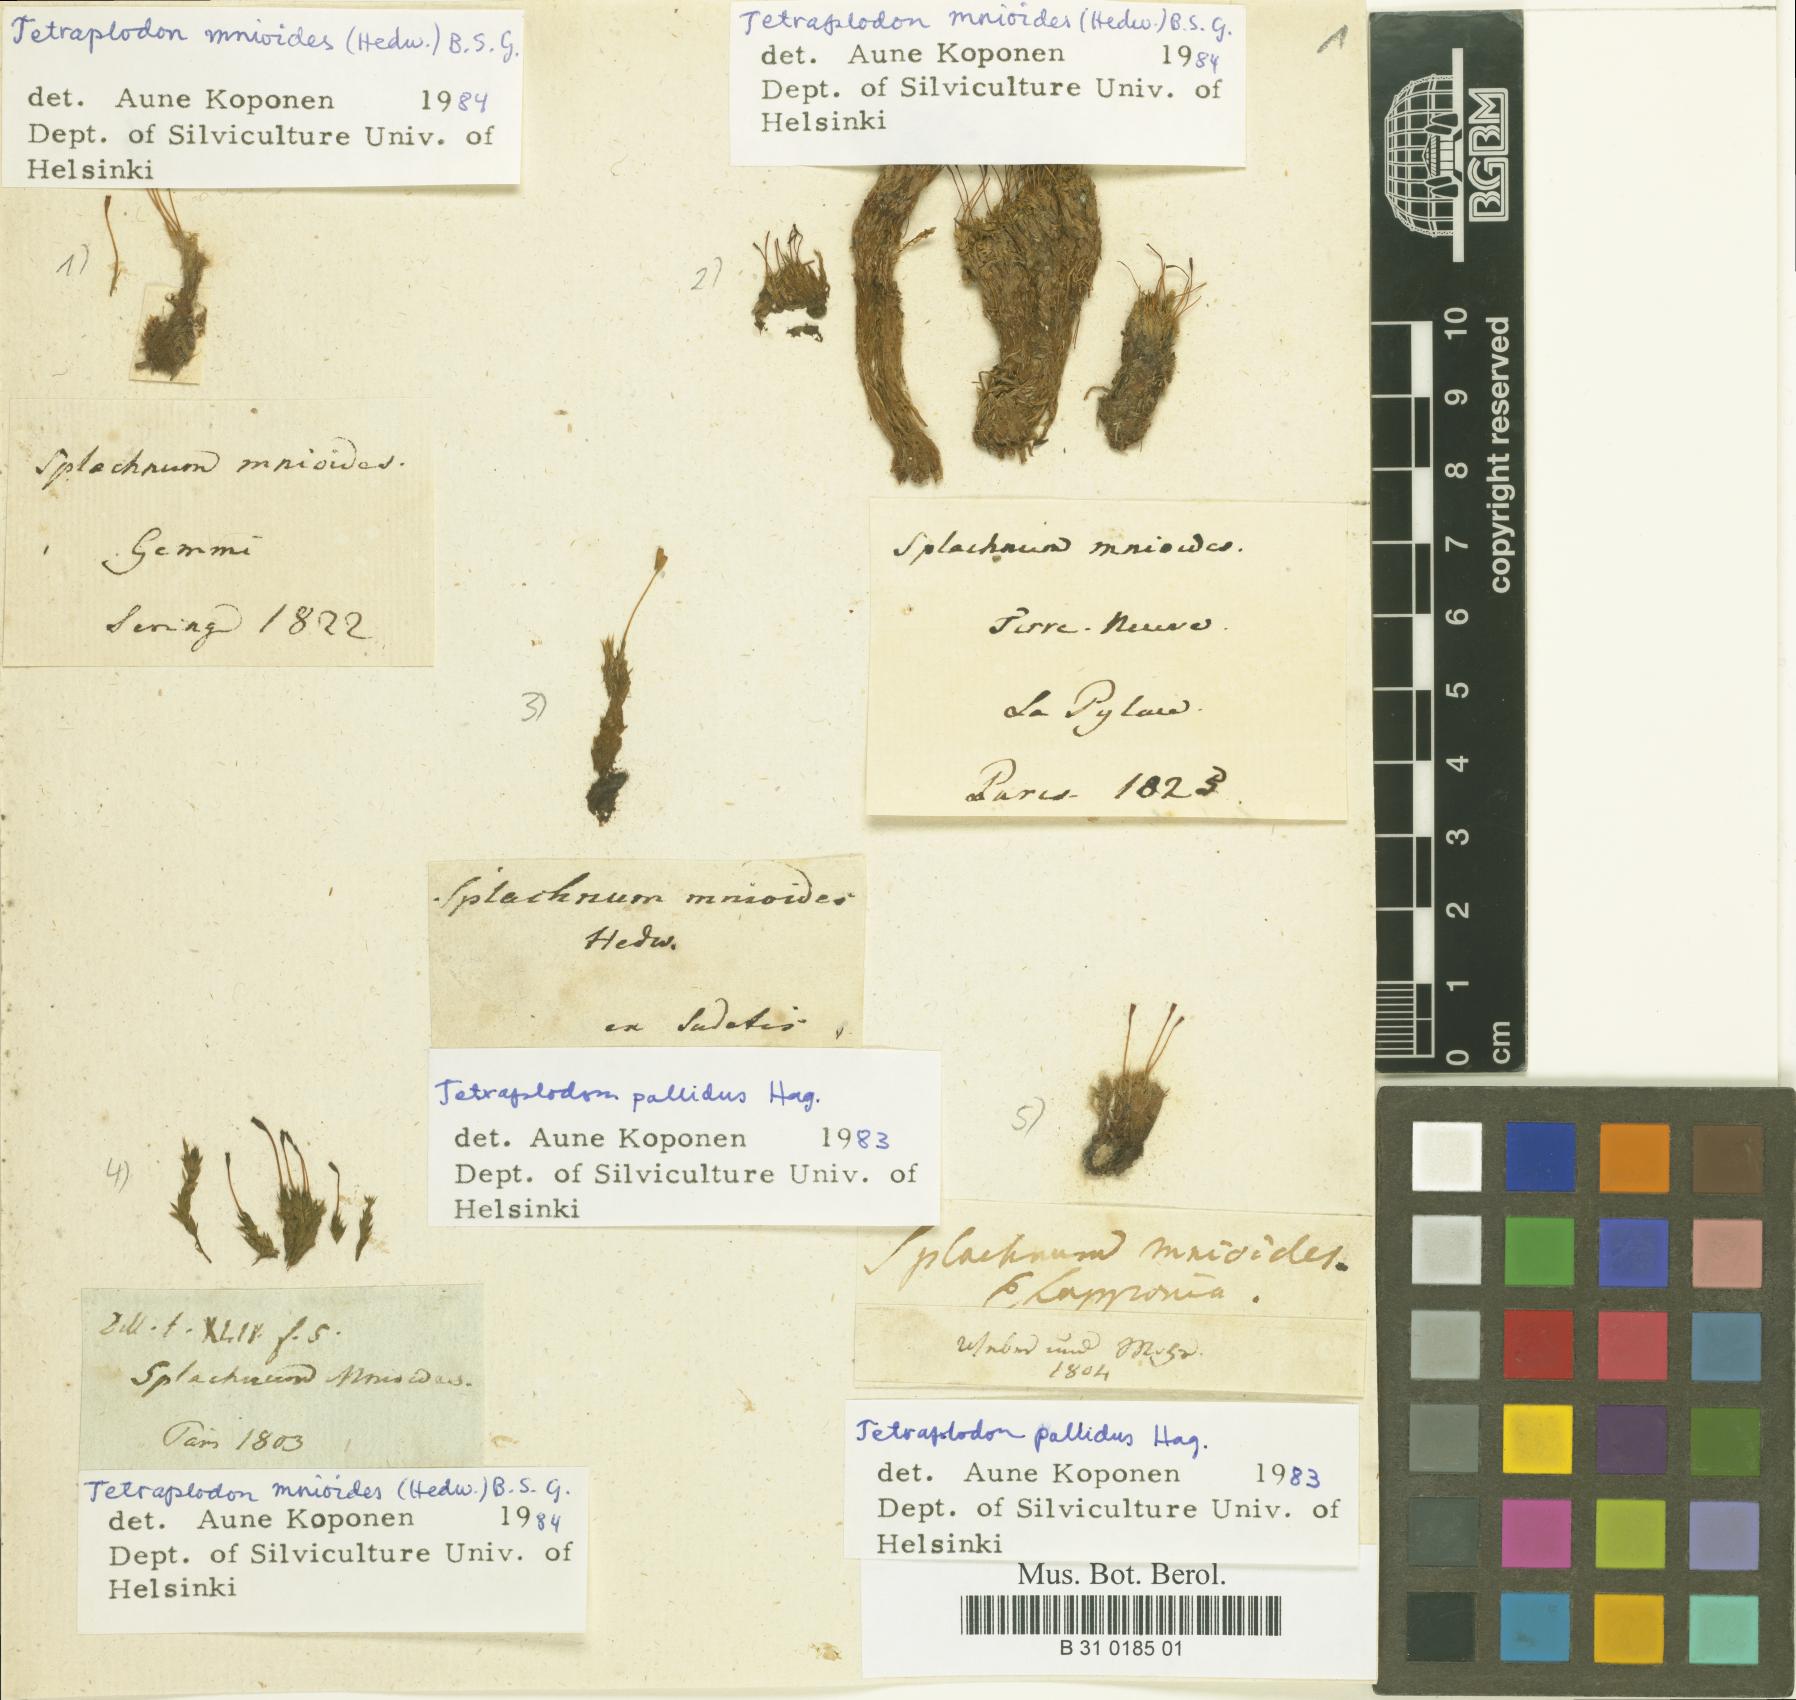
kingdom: Plantae
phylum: Bryophyta
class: Bryopsida
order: Splachnales
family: Splachnaceae
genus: Tetraplodon
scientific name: Tetraplodon mnioides
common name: Entire-leaved nitrogen moss
